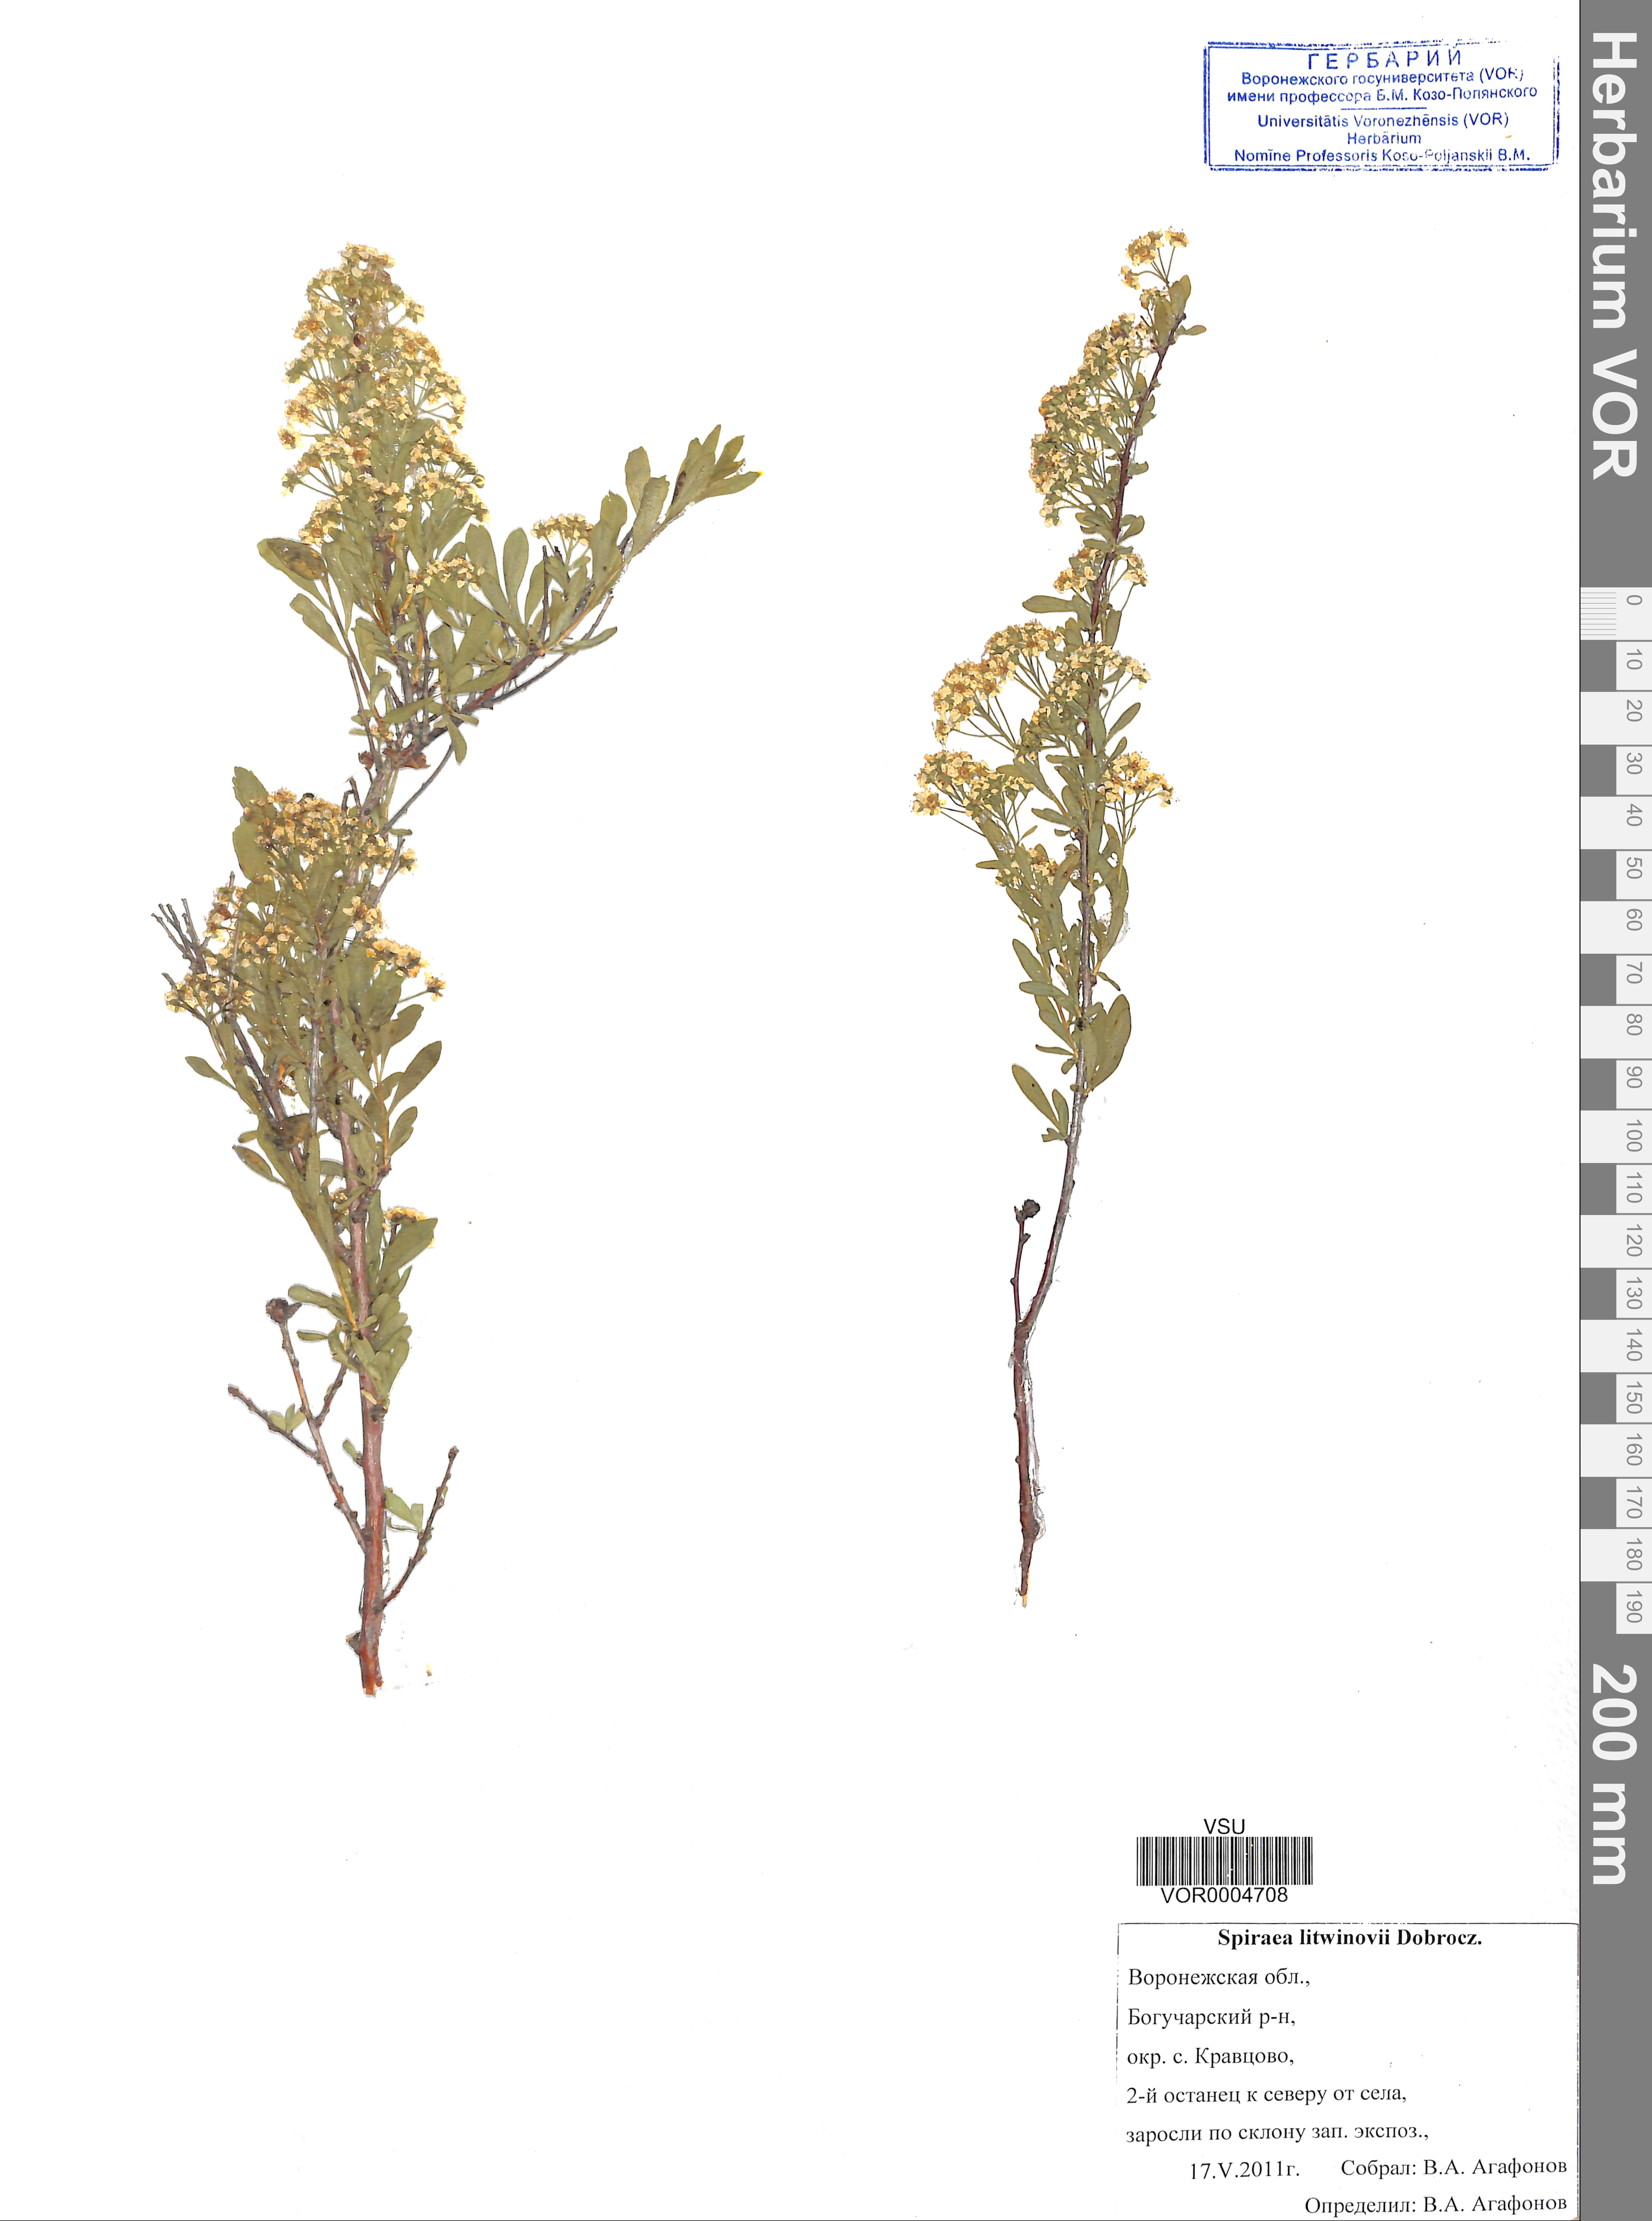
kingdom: Plantae
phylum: Tracheophyta
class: Magnoliopsida
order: Rosales
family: Rosaceae
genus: Spiraea
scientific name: Spiraea crenata
